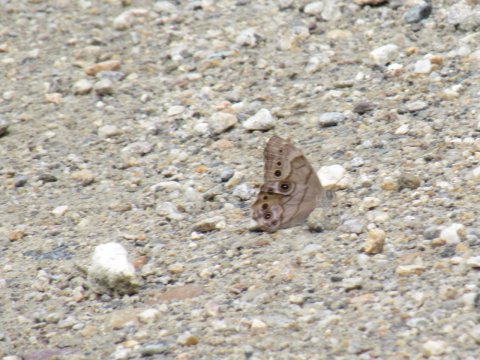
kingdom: Animalia
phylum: Arthropoda
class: Insecta
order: Lepidoptera
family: Nymphalidae
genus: Lethe
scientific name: Lethe anthedon
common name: Northern Pearly-Eye
